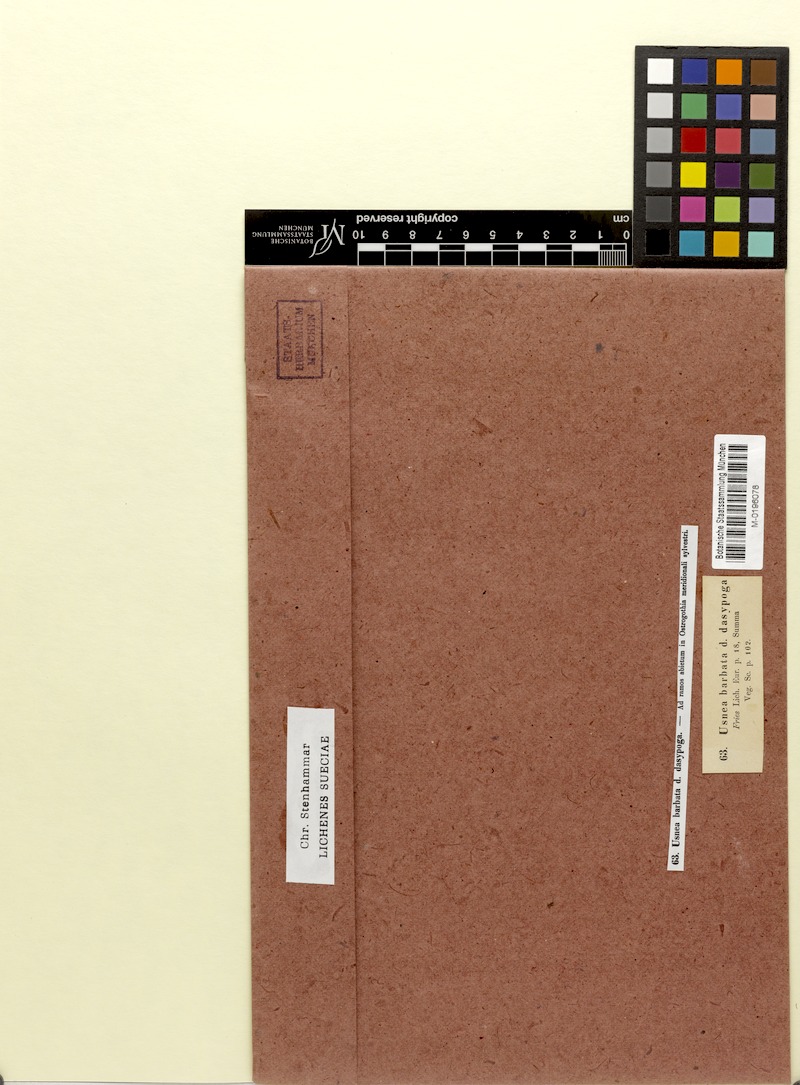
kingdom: Fungi
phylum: Ascomycota
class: Lecanoromycetes
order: Lecanorales
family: Parmeliaceae
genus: Usnea
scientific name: Usnea dasopoga
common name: Fishbone beard lichen
